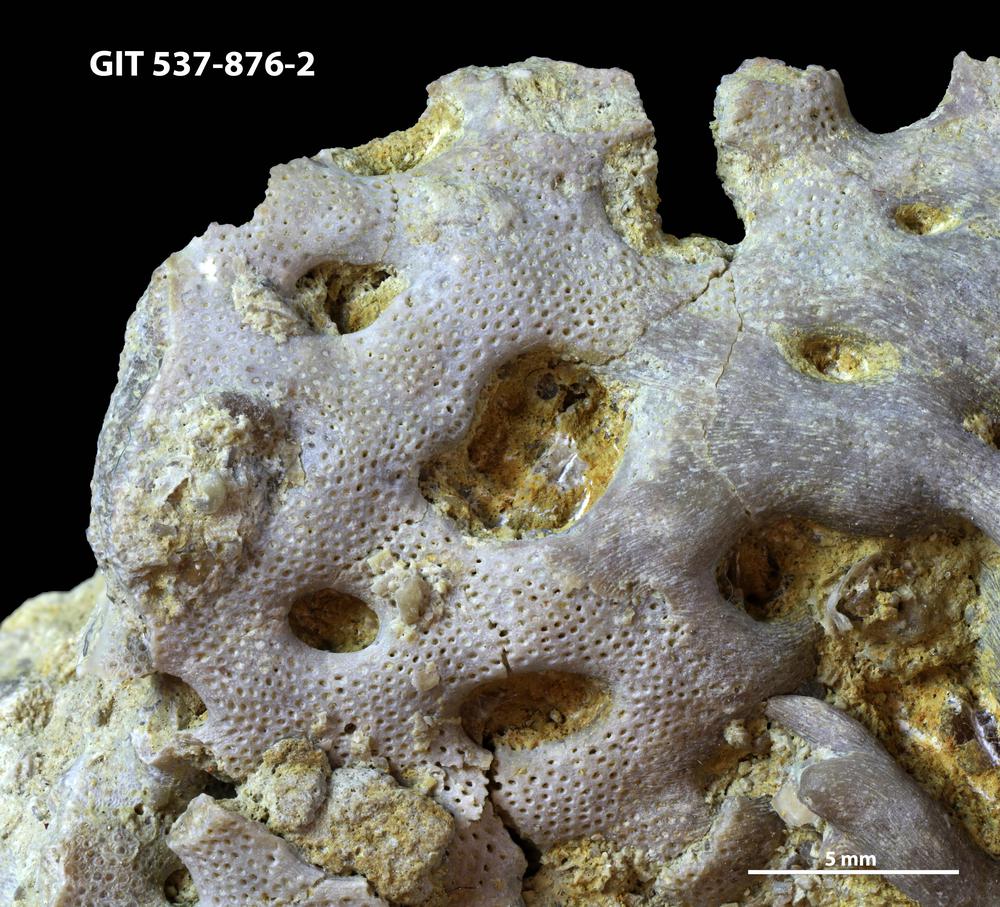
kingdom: Animalia
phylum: Bryozoa
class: Stenolaemata
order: Cryptostomida
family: Escharoporidae
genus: Proavella
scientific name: Proavella
